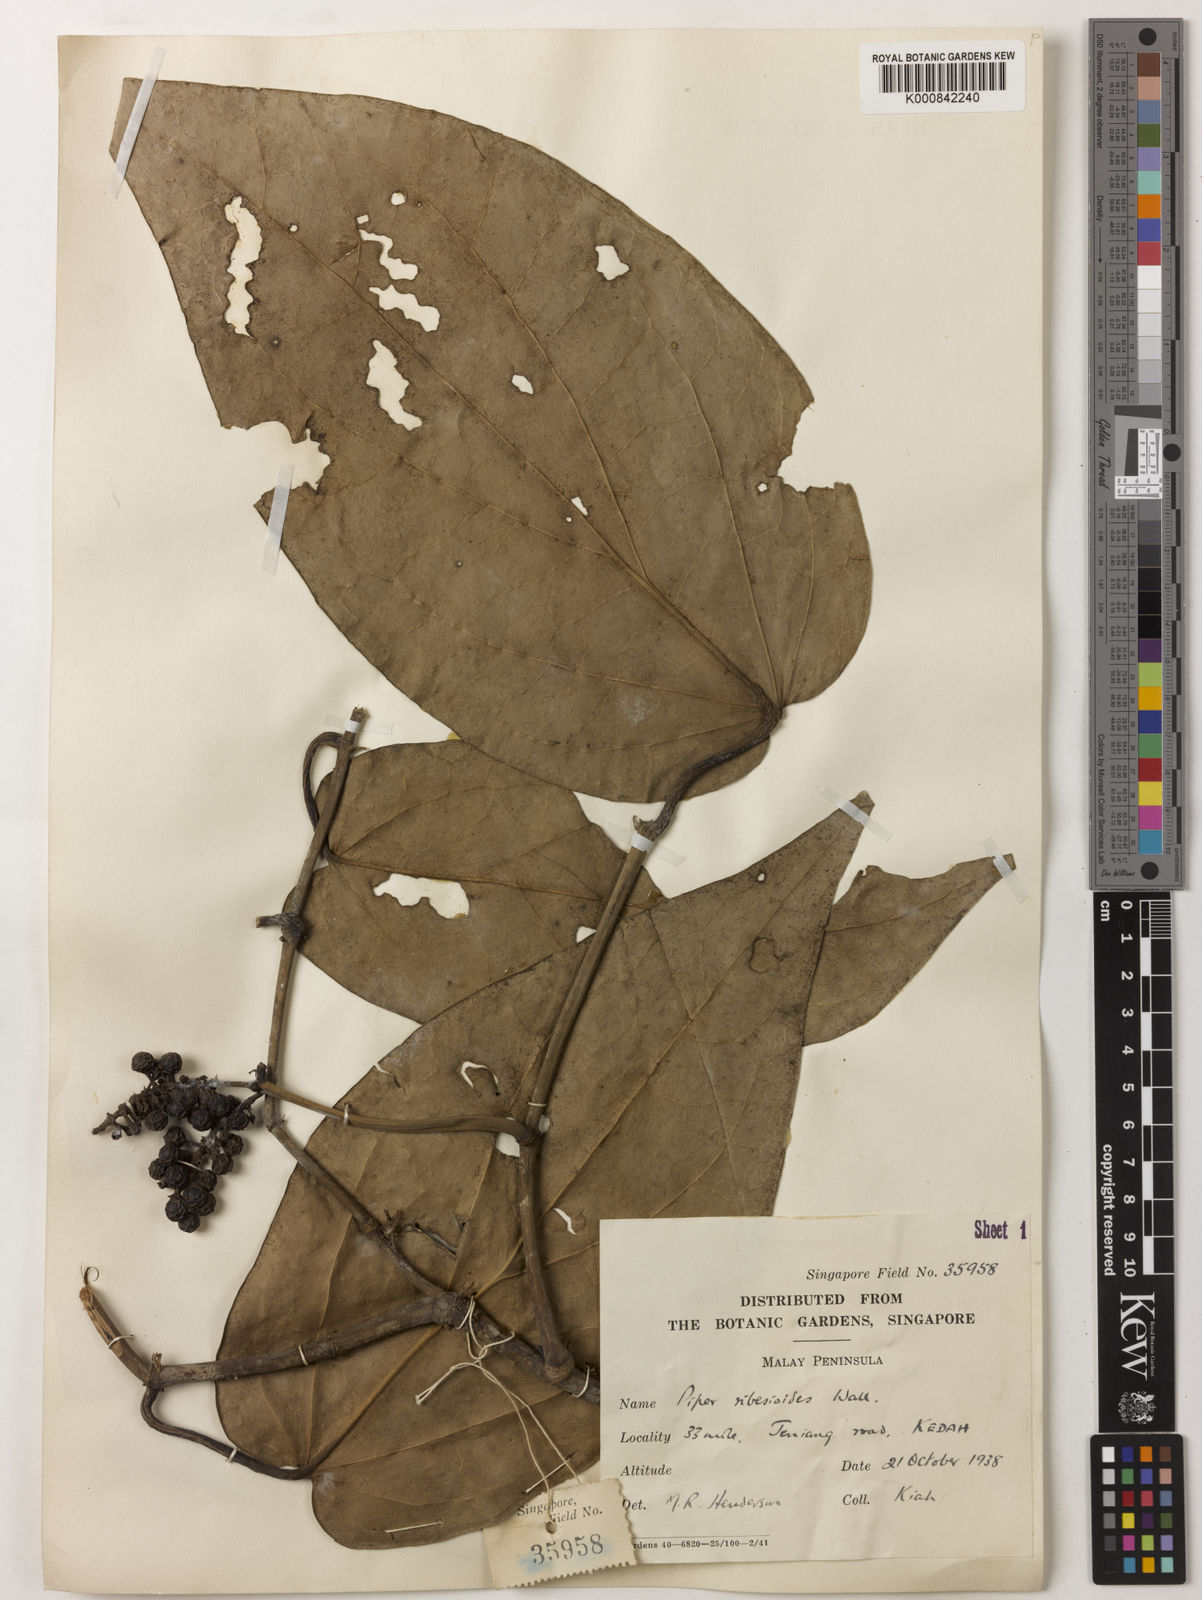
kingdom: Plantae
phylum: Tracheophyta
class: Magnoliopsida
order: Piperales
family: Piperaceae
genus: Piper
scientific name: Piper ribesioides
